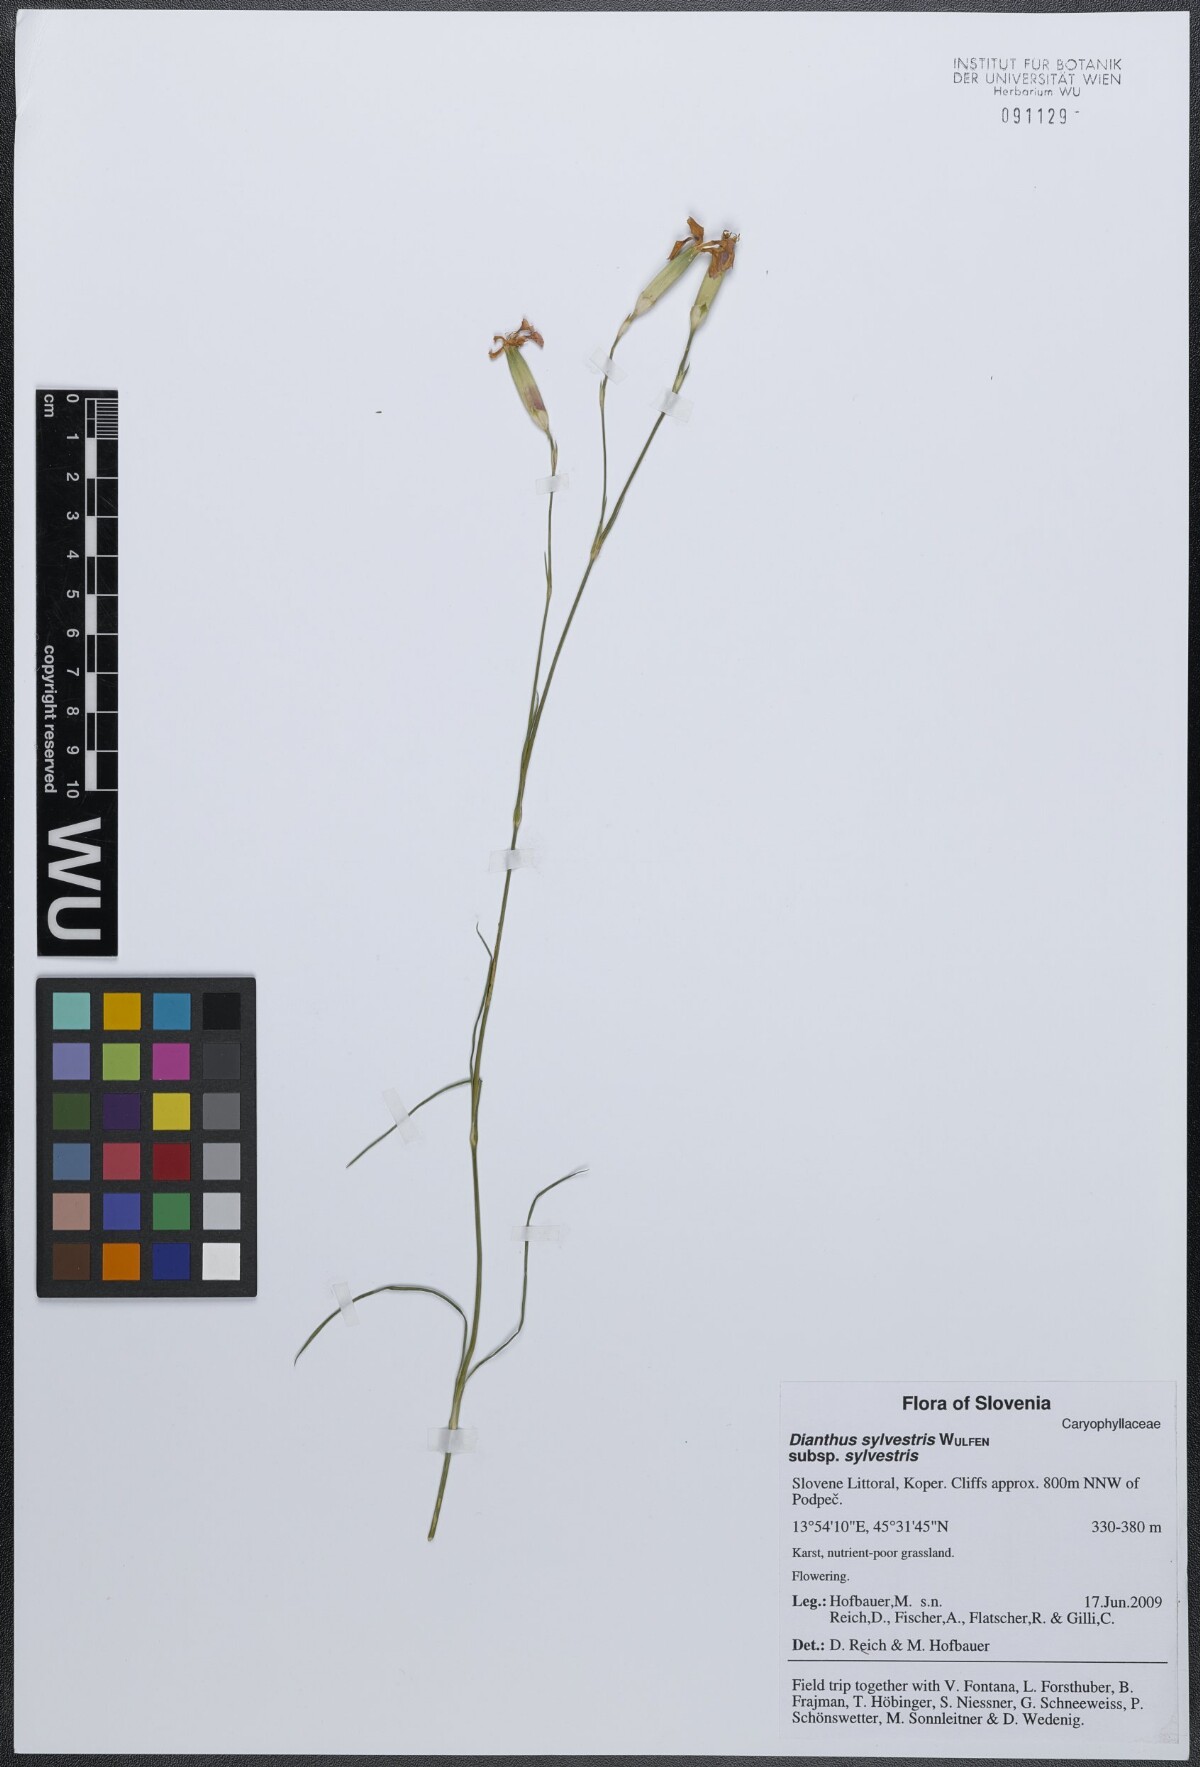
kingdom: Plantae
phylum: Tracheophyta
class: Magnoliopsida
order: Caryophyllales
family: Caryophyllaceae
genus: Dianthus
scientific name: Dianthus sylvestris
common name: Wood pink
